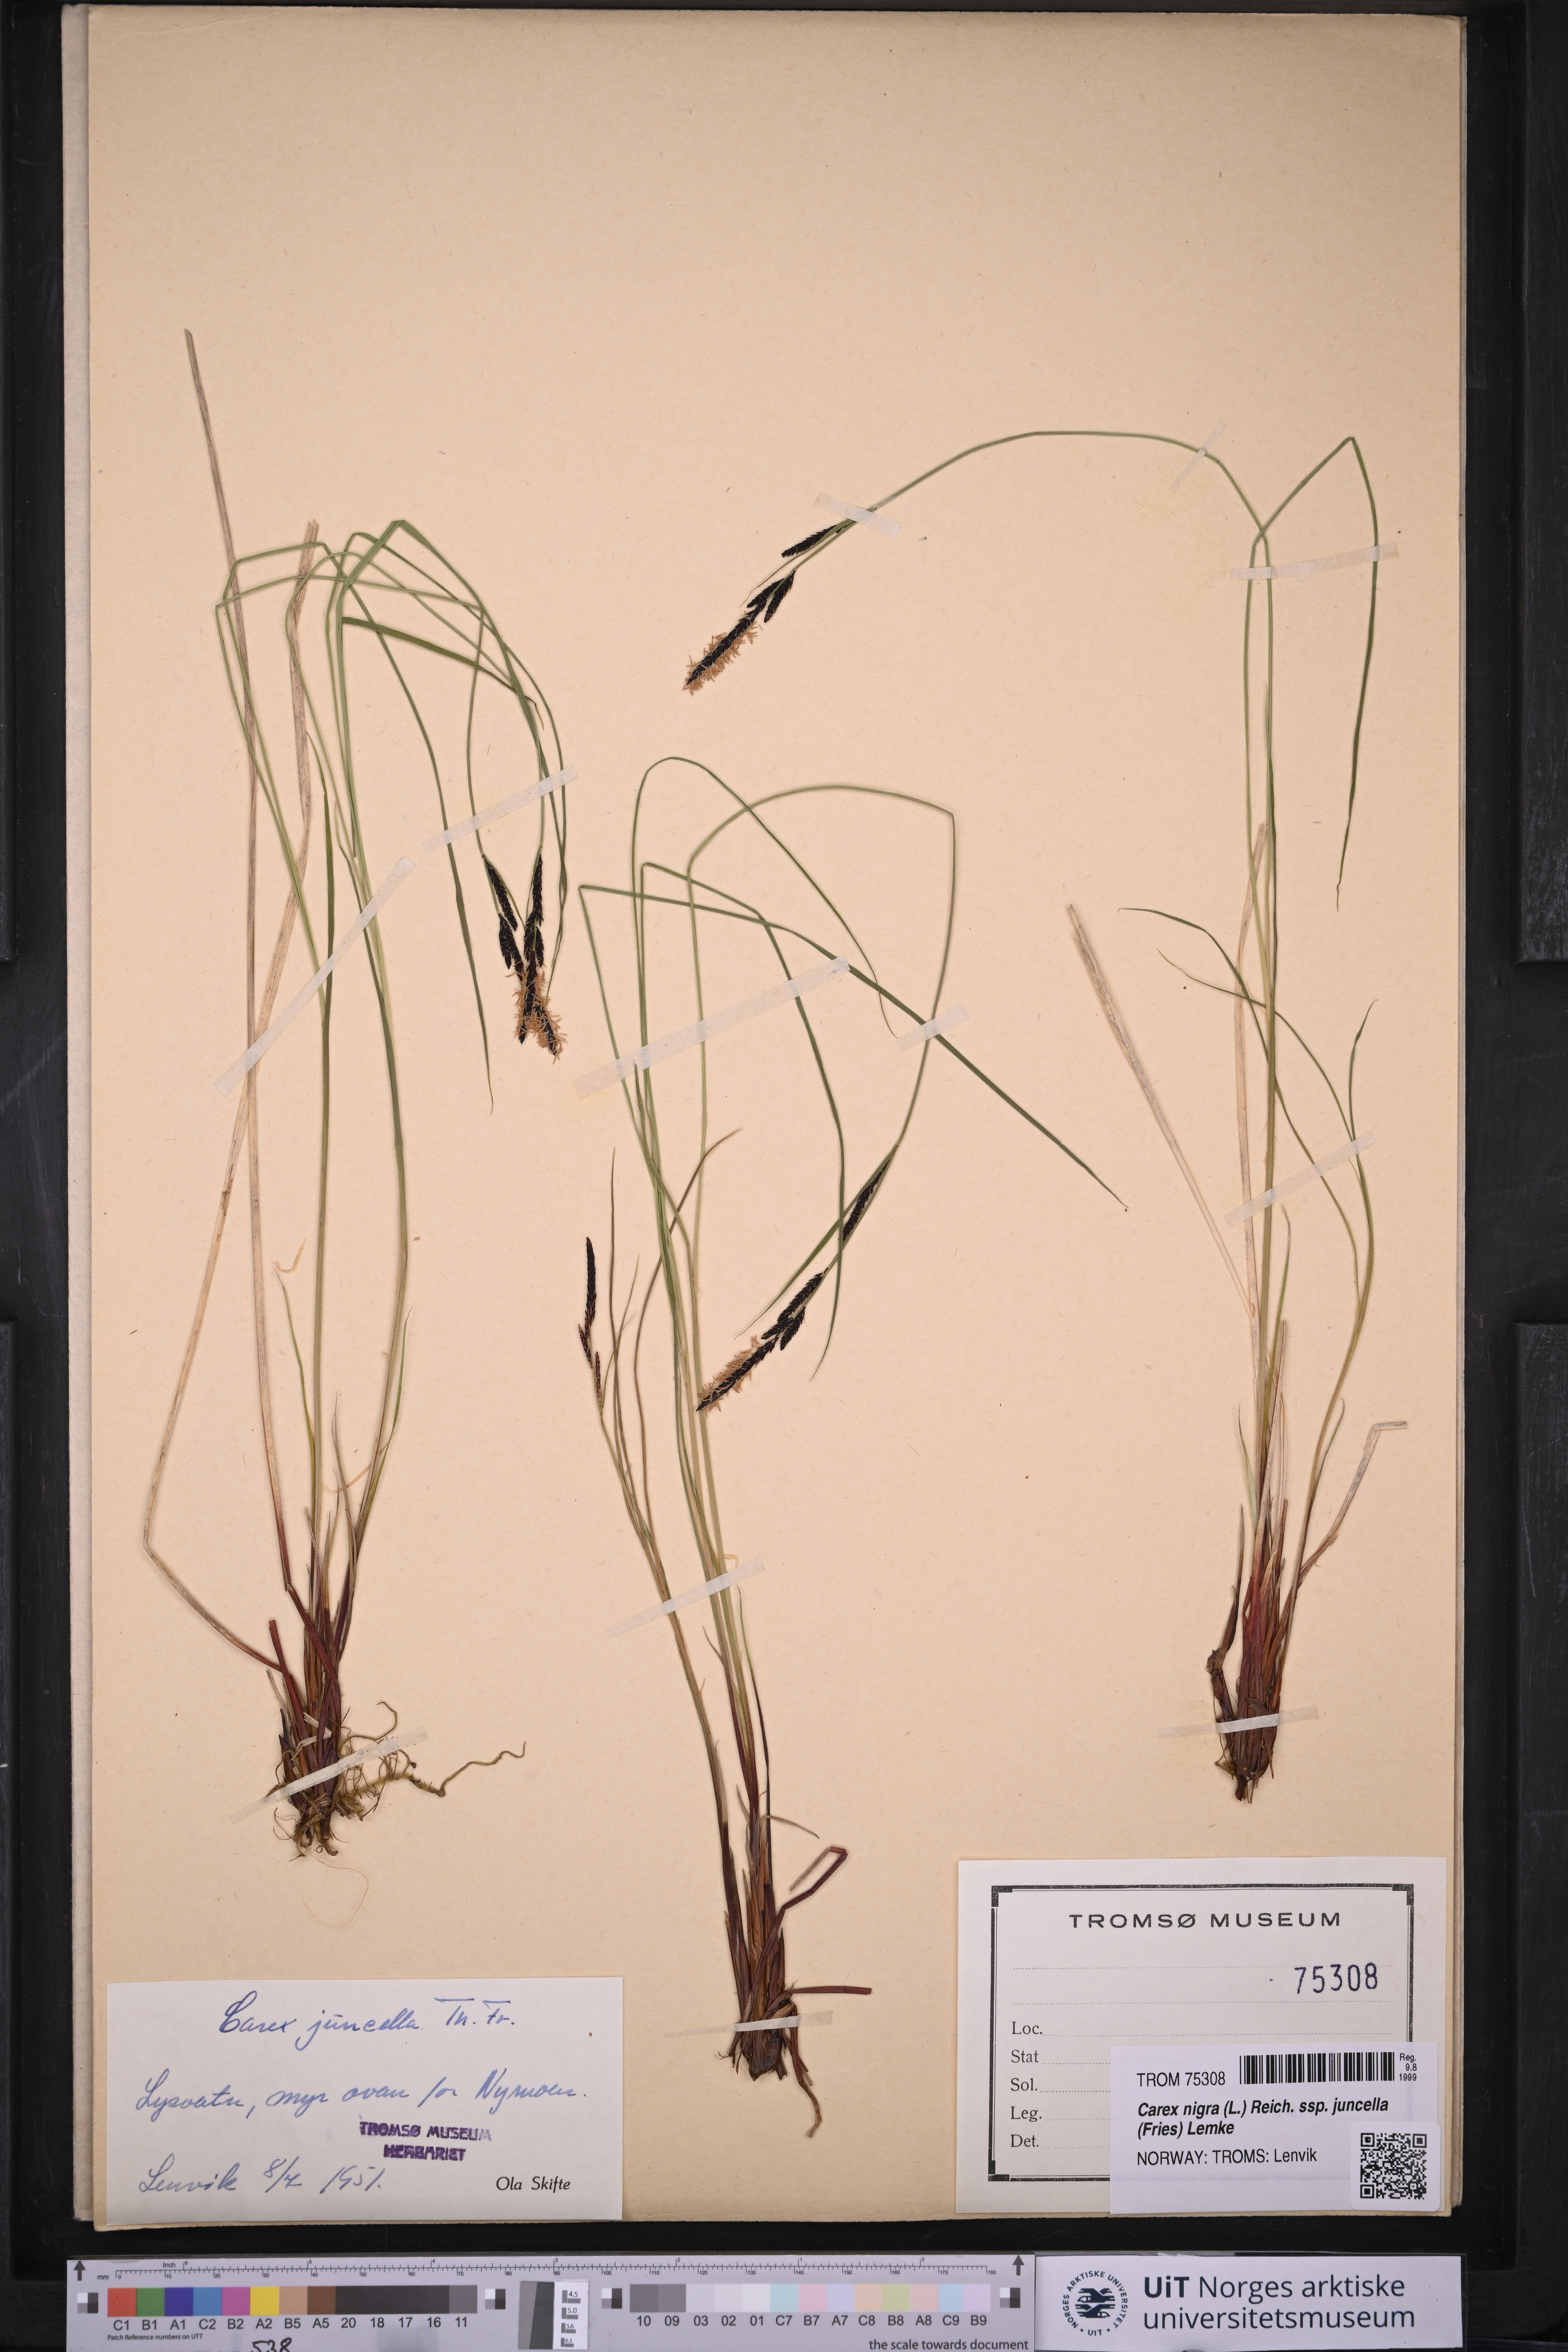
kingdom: Plantae
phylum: Tracheophyta
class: Liliopsida
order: Poales
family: Cyperaceae
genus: Carex
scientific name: Carex nigra
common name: Common sedge
